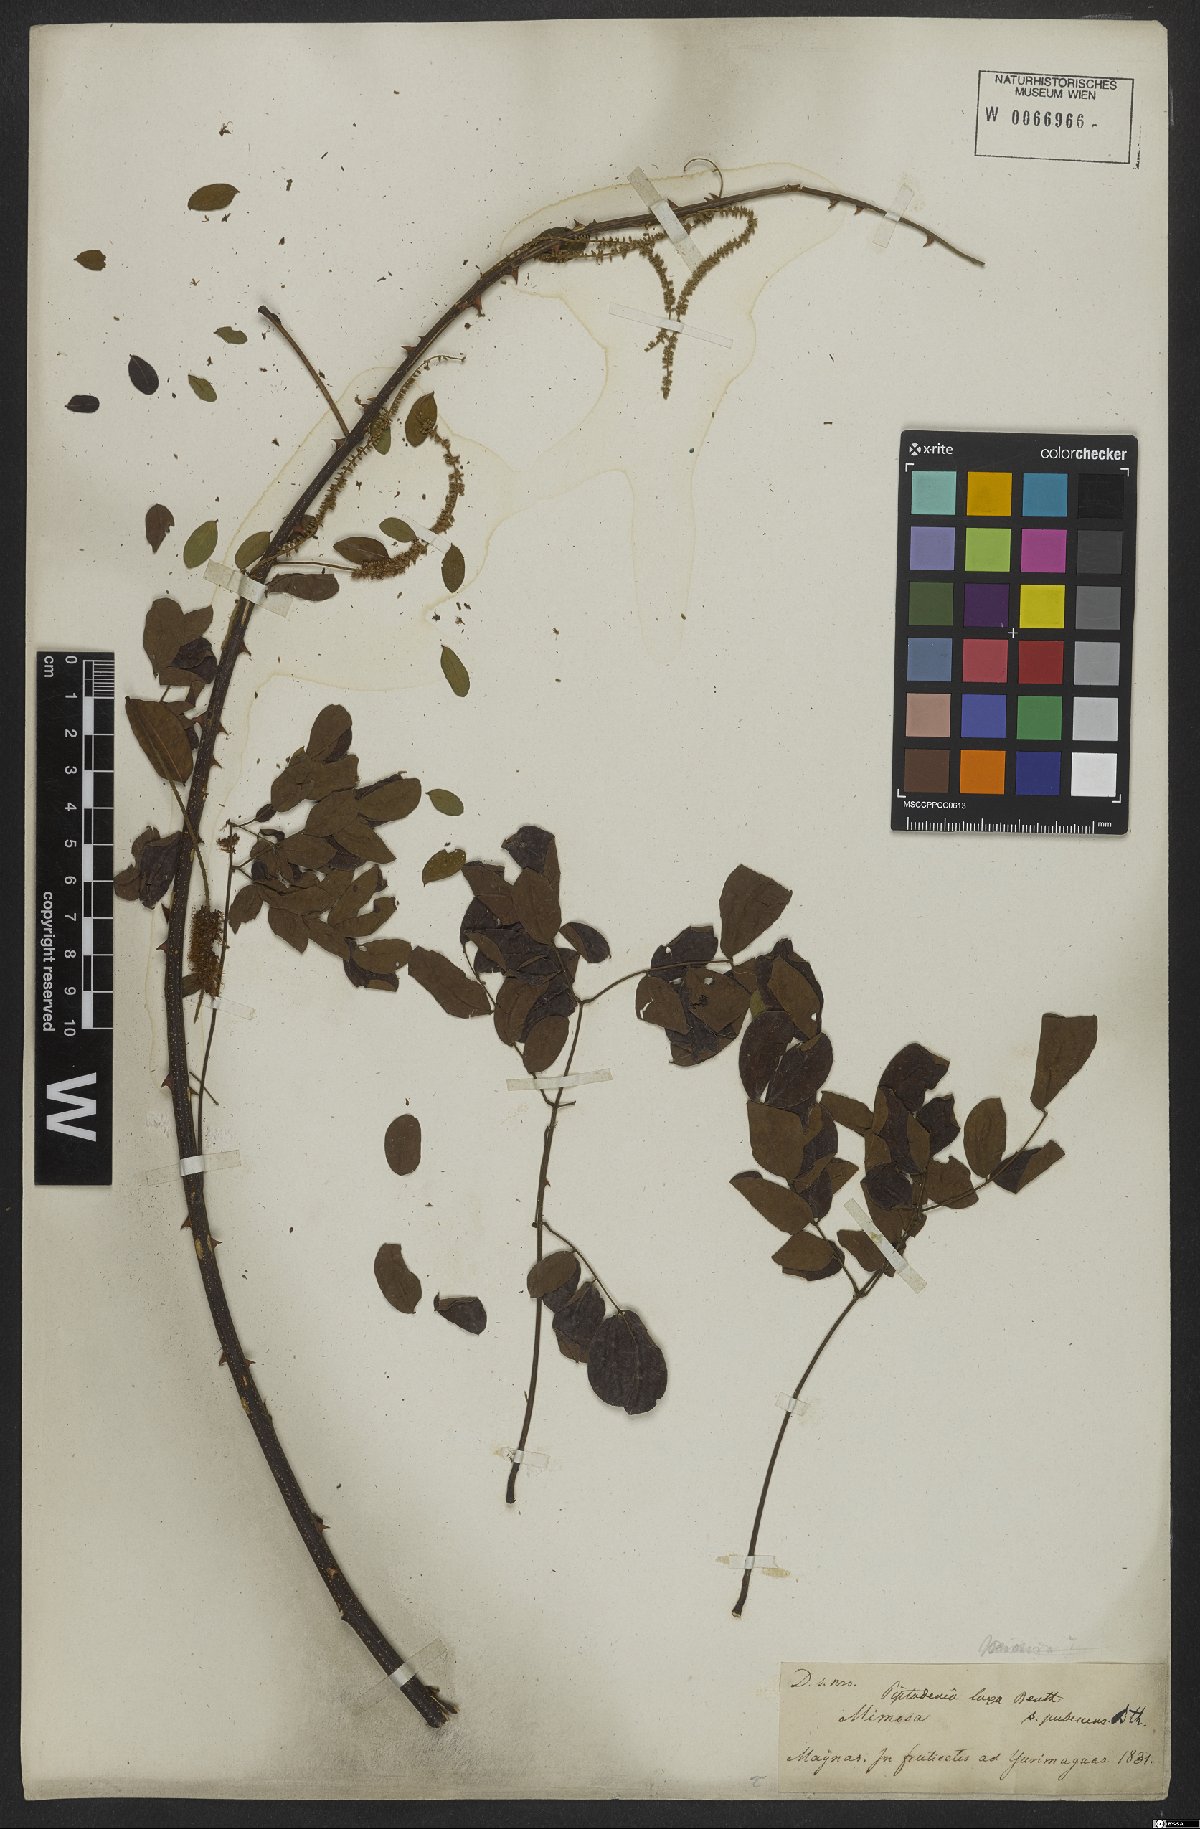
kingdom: Plantae
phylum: Tracheophyta
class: Magnoliopsida
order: Fabales
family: Fabaceae
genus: Piptadenia
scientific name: Piptadenia adiantoides
